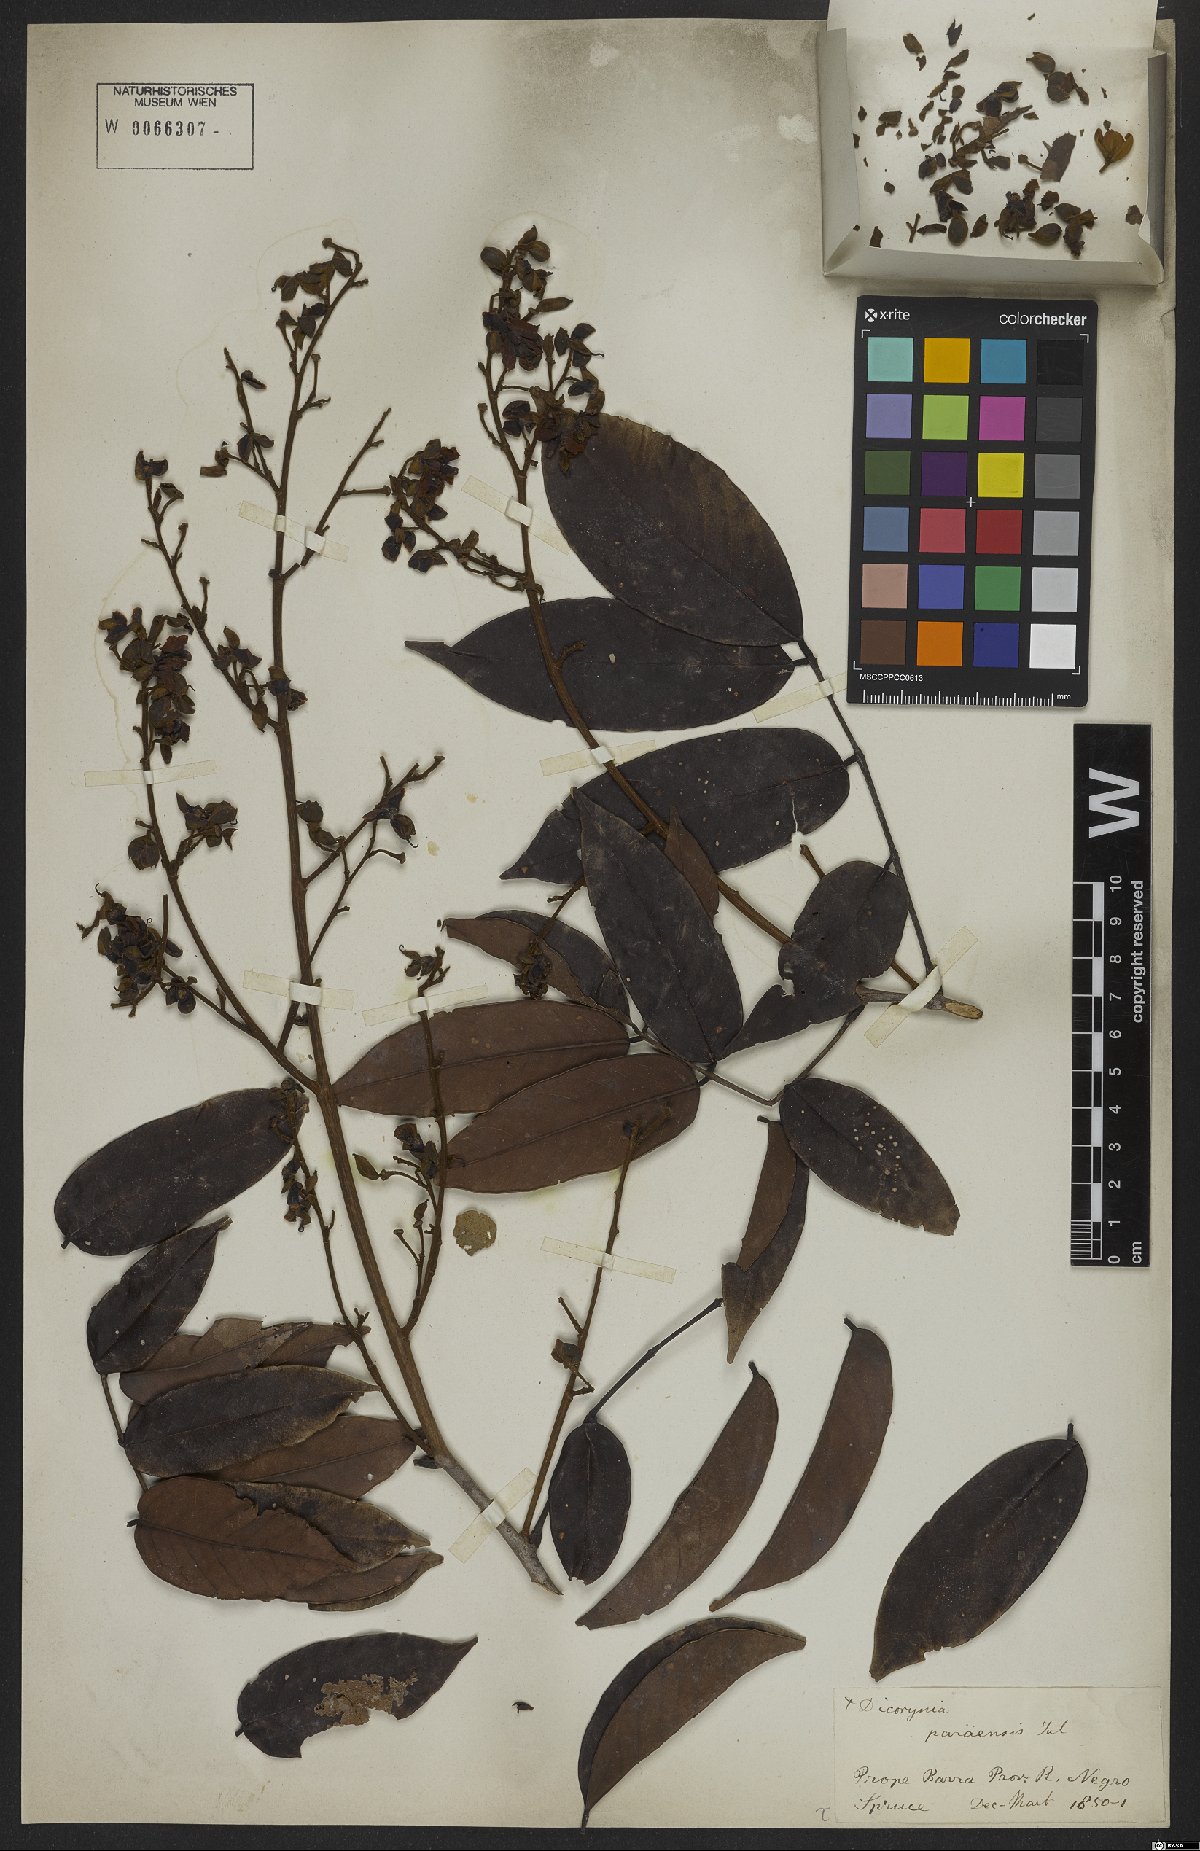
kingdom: Plantae
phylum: Tracheophyta
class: Magnoliopsida
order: Fabales
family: Fabaceae
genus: Dicorynia
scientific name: Dicorynia paraensis
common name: Angelique
